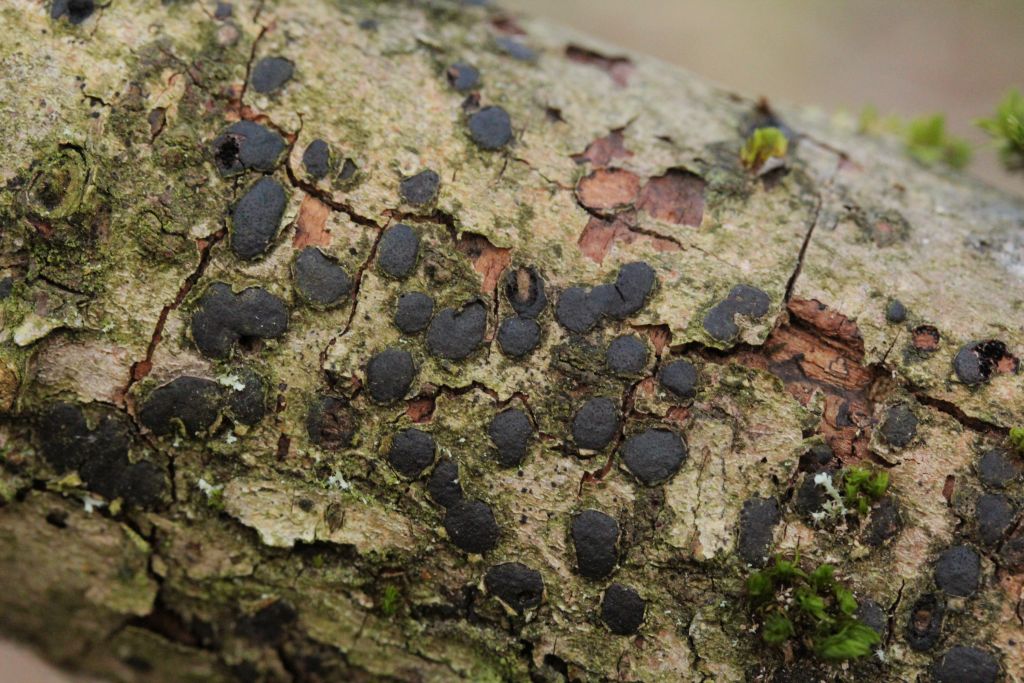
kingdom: Fungi
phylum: Ascomycota
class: Sordariomycetes
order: Xylariales
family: Diatrypaceae
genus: Diatrype
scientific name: Diatrype bullata
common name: pile-kulskorpe
